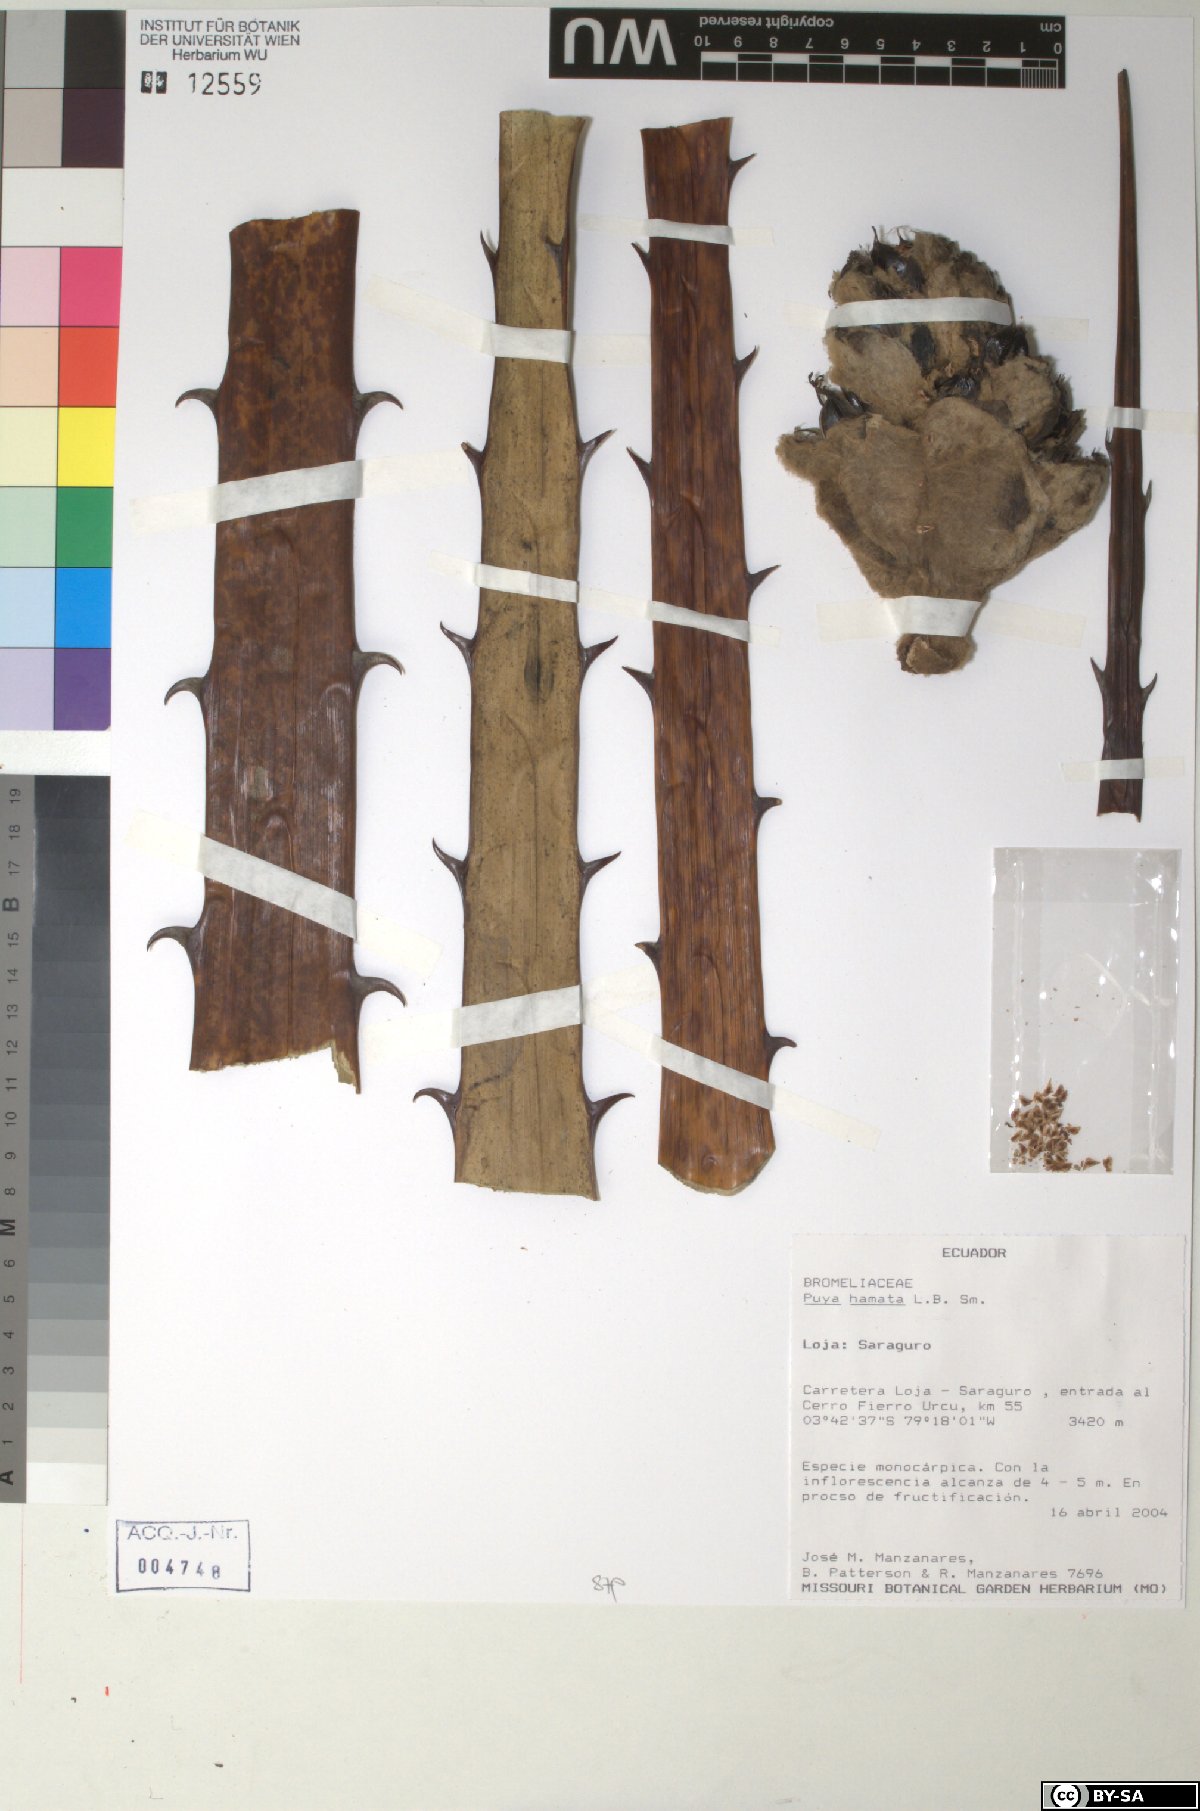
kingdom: Plantae
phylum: Tracheophyta
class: Liliopsida
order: Poales
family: Bromeliaceae
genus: Puya
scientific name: Puya hamata
